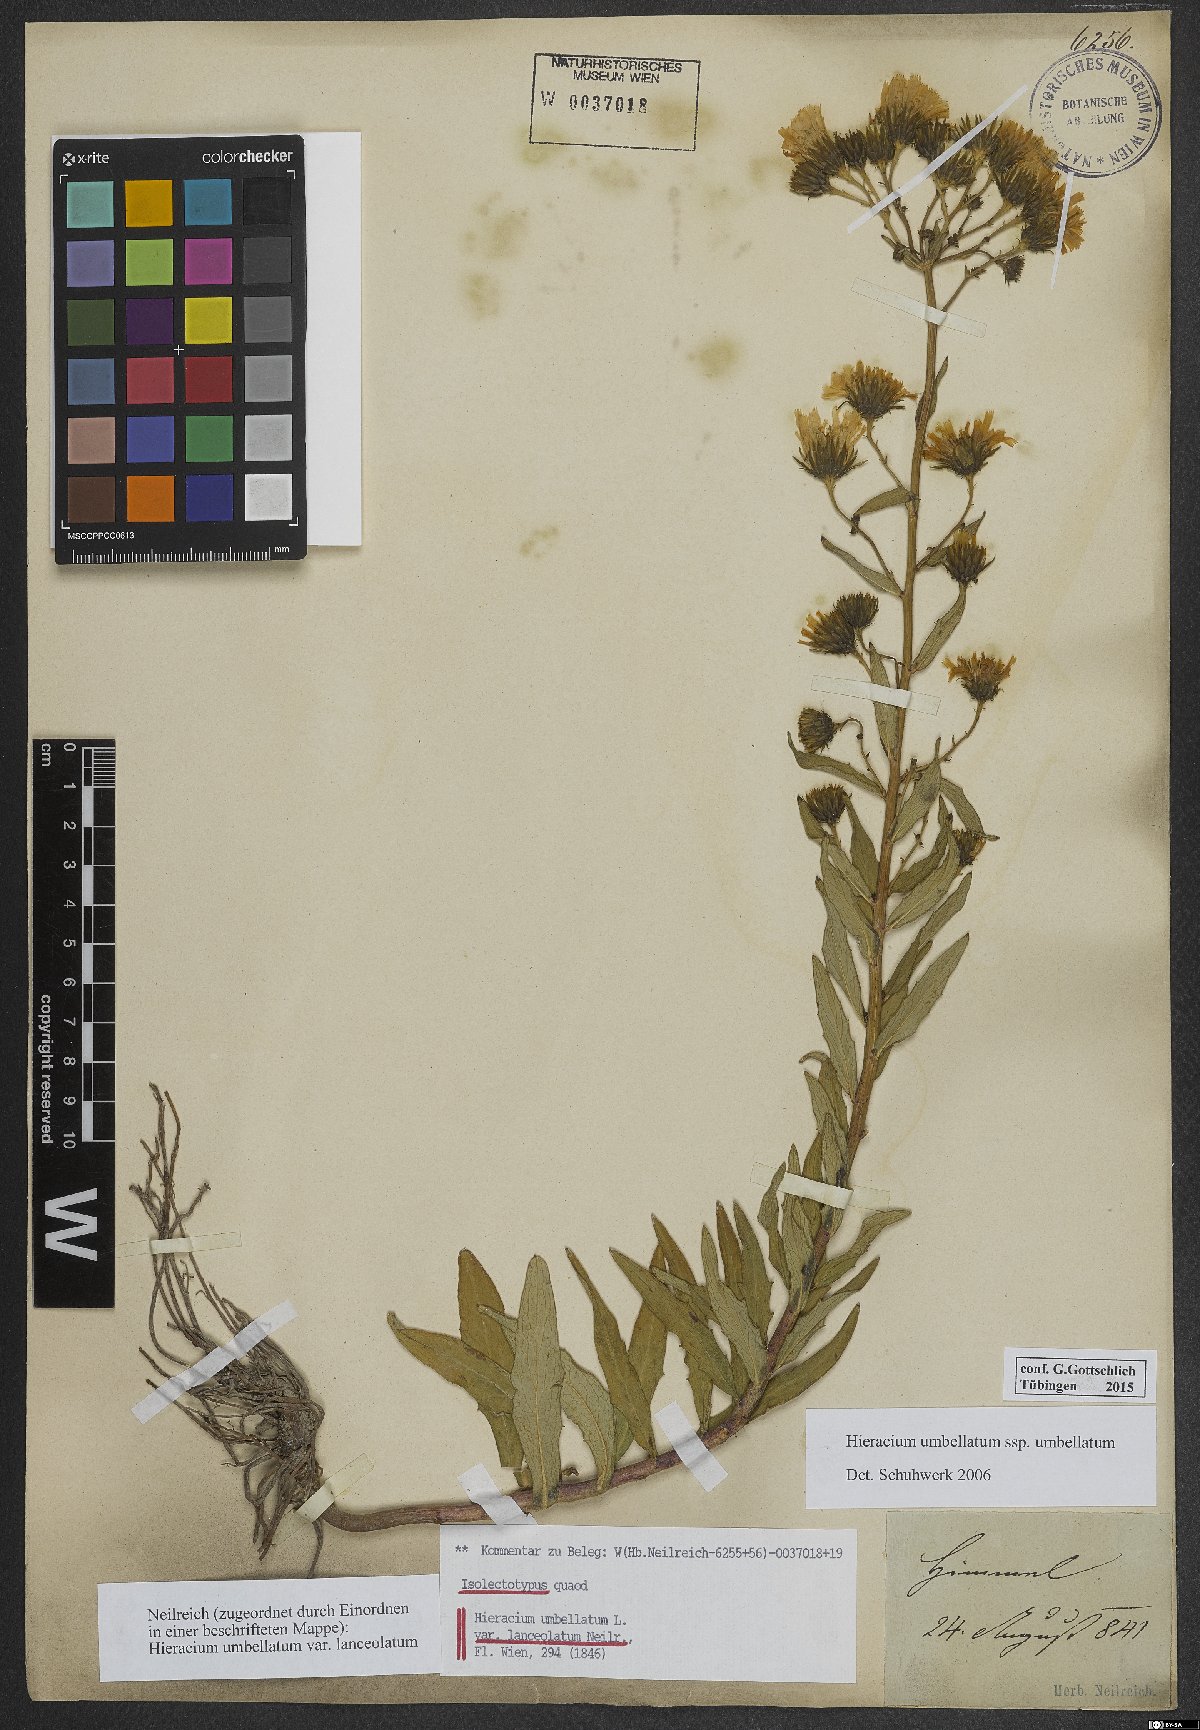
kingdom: Plantae
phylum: Tracheophyta
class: Magnoliopsida
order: Asterales
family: Asteraceae
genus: Hieracium
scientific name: Hieracium umbellatum
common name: Northern hawkweed
